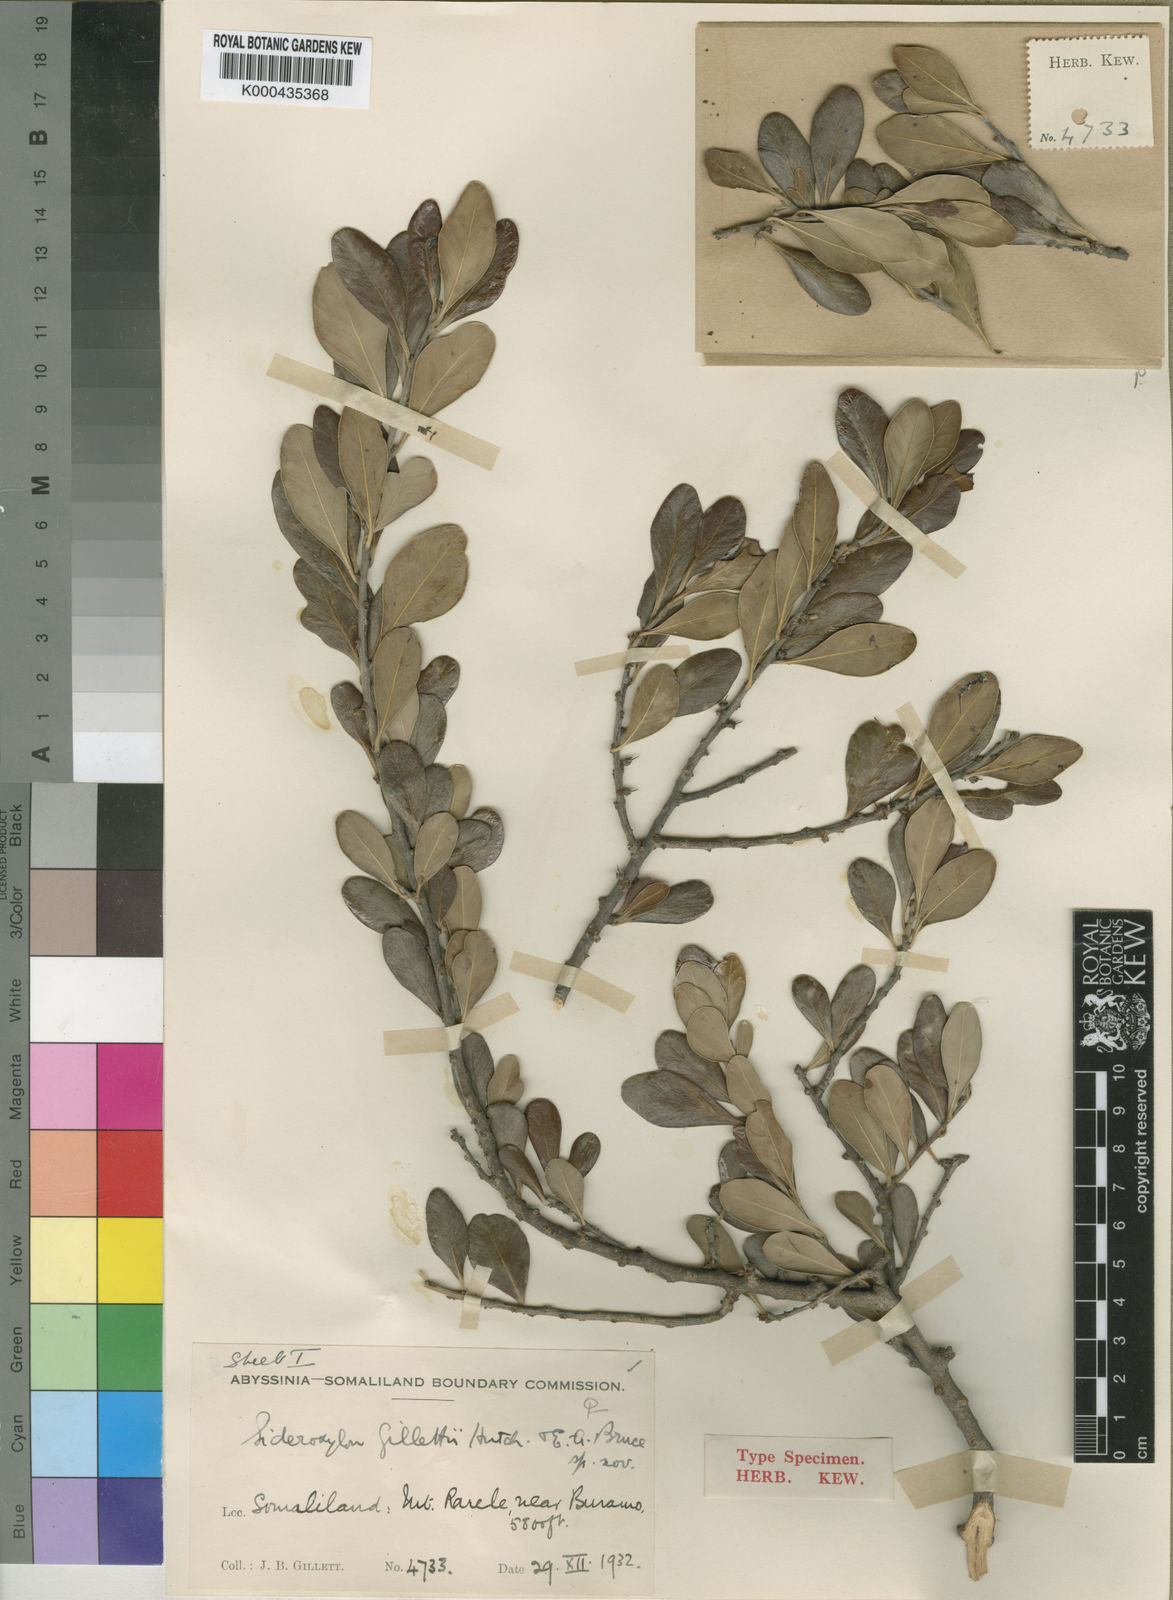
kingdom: Plantae
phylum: Tracheophyta
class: Magnoliopsida
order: Ericales
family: Sapotaceae
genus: Sideroxylon
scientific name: Sideroxylon mascatense
